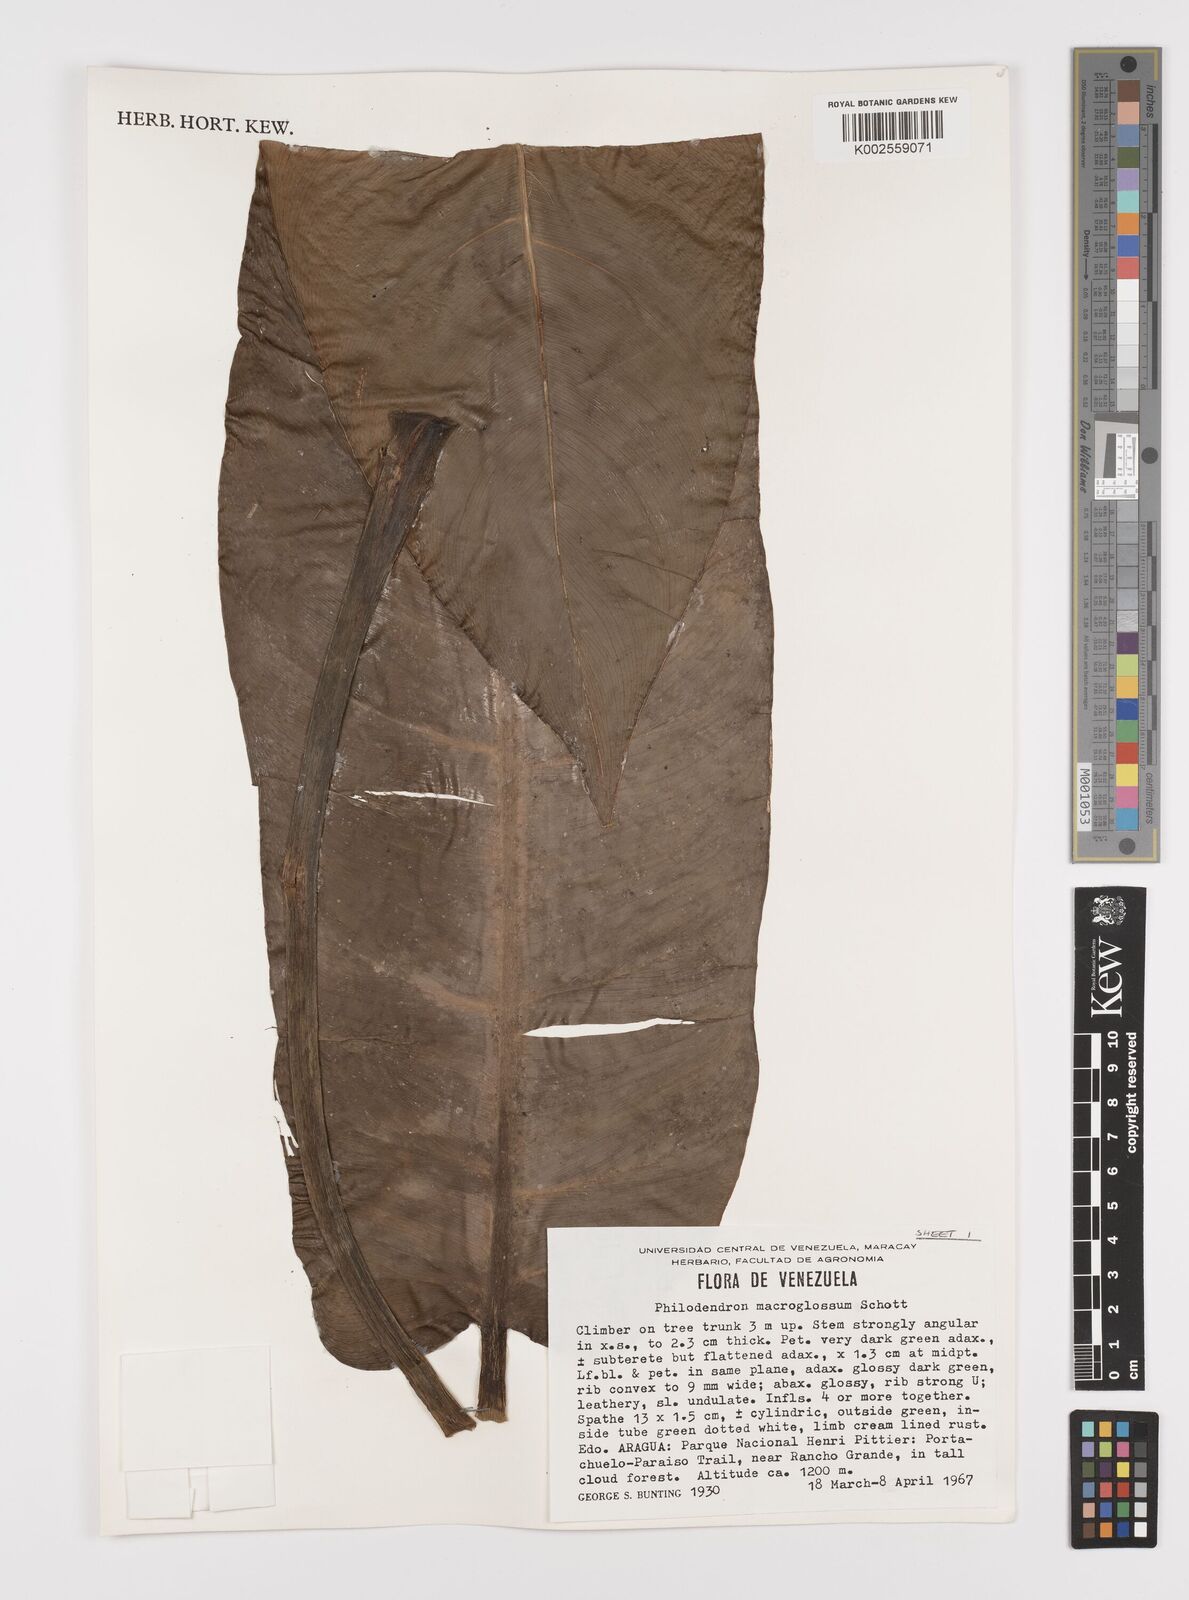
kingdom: Plantae
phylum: Tracheophyta
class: Liliopsida
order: Alismatales
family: Araceae
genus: Philodendron
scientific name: Philodendron macroglossum
